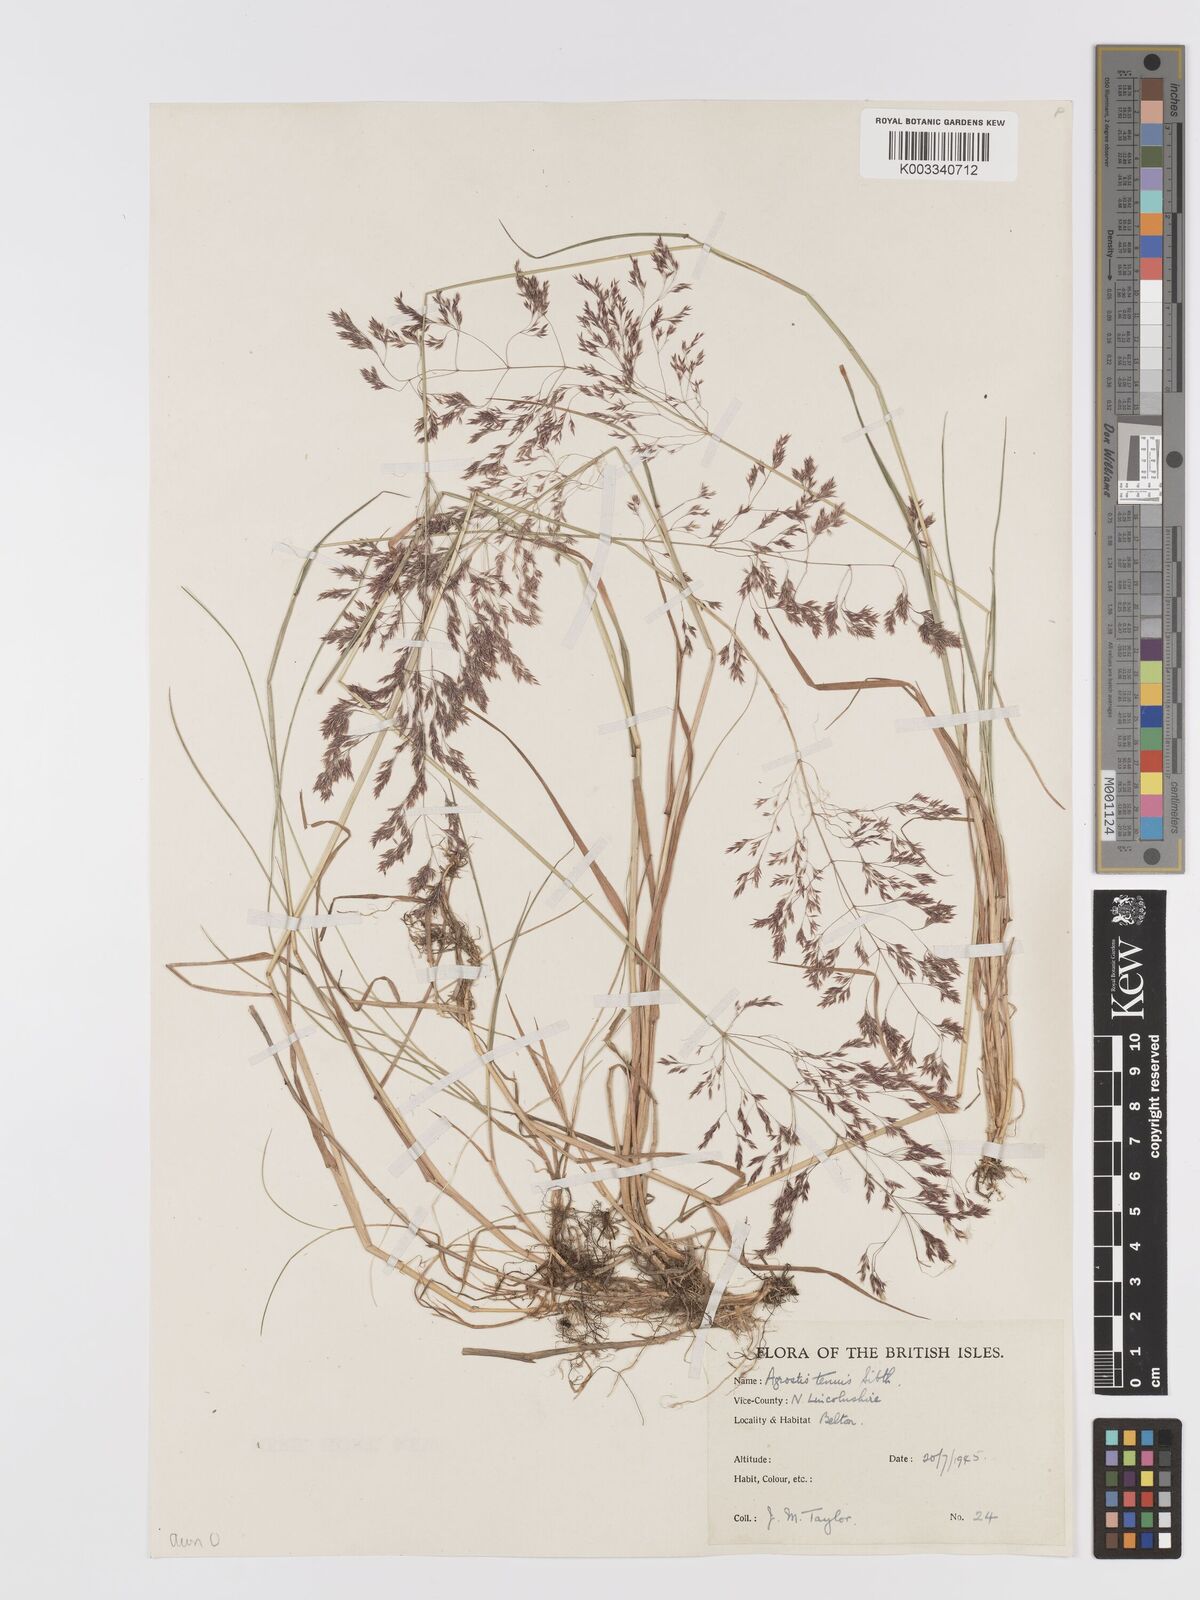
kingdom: Plantae
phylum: Tracheophyta
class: Liliopsida
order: Poales
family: Poaceae
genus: Agrostis
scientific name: Agrostis capillaris
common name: Colonial bentgrass
